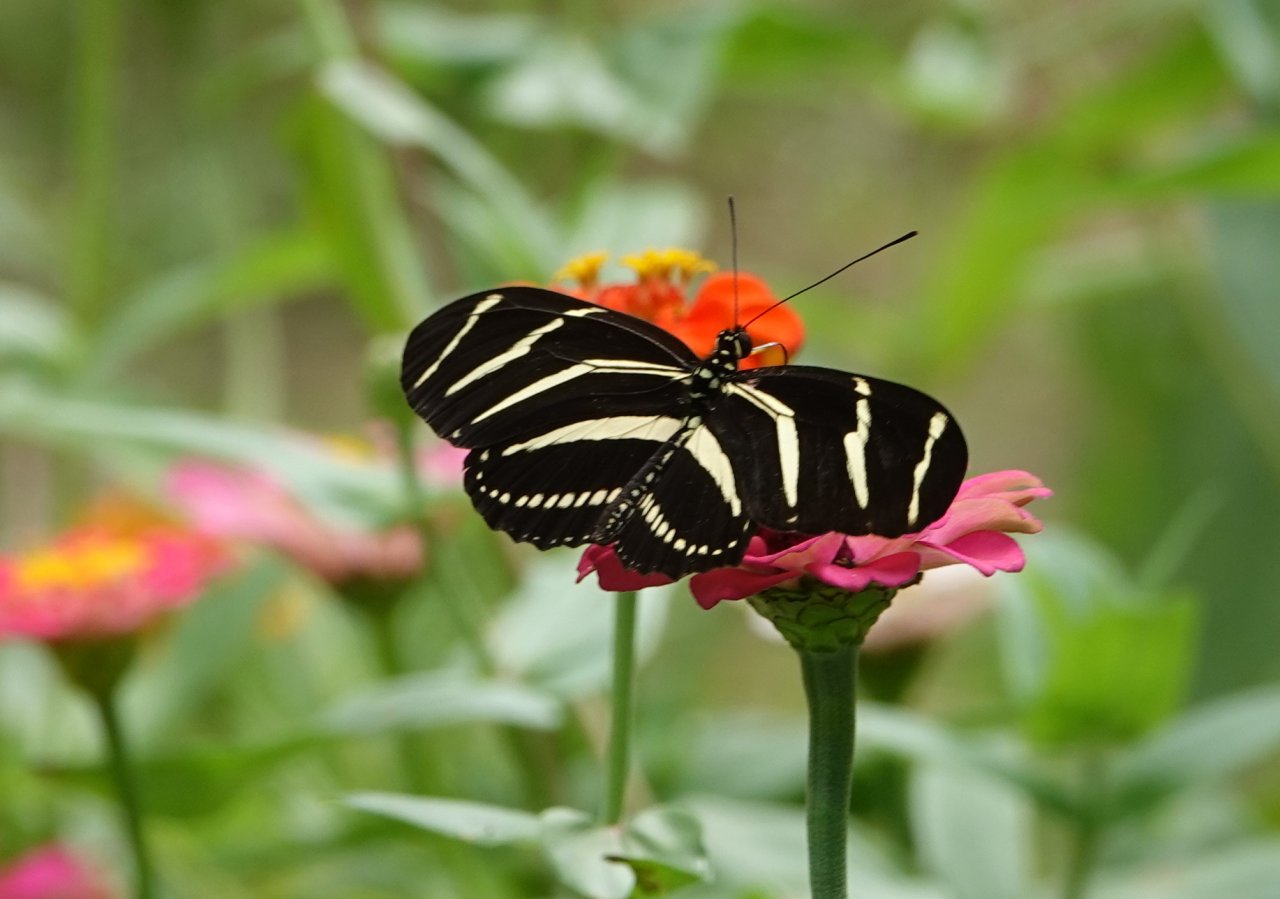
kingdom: Animalia
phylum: Arthropoda
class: Insecta
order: Lepidoptera
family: Nymphalidae
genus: Heliconius
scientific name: Heliconius charithonia
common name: Zebra Longwing
